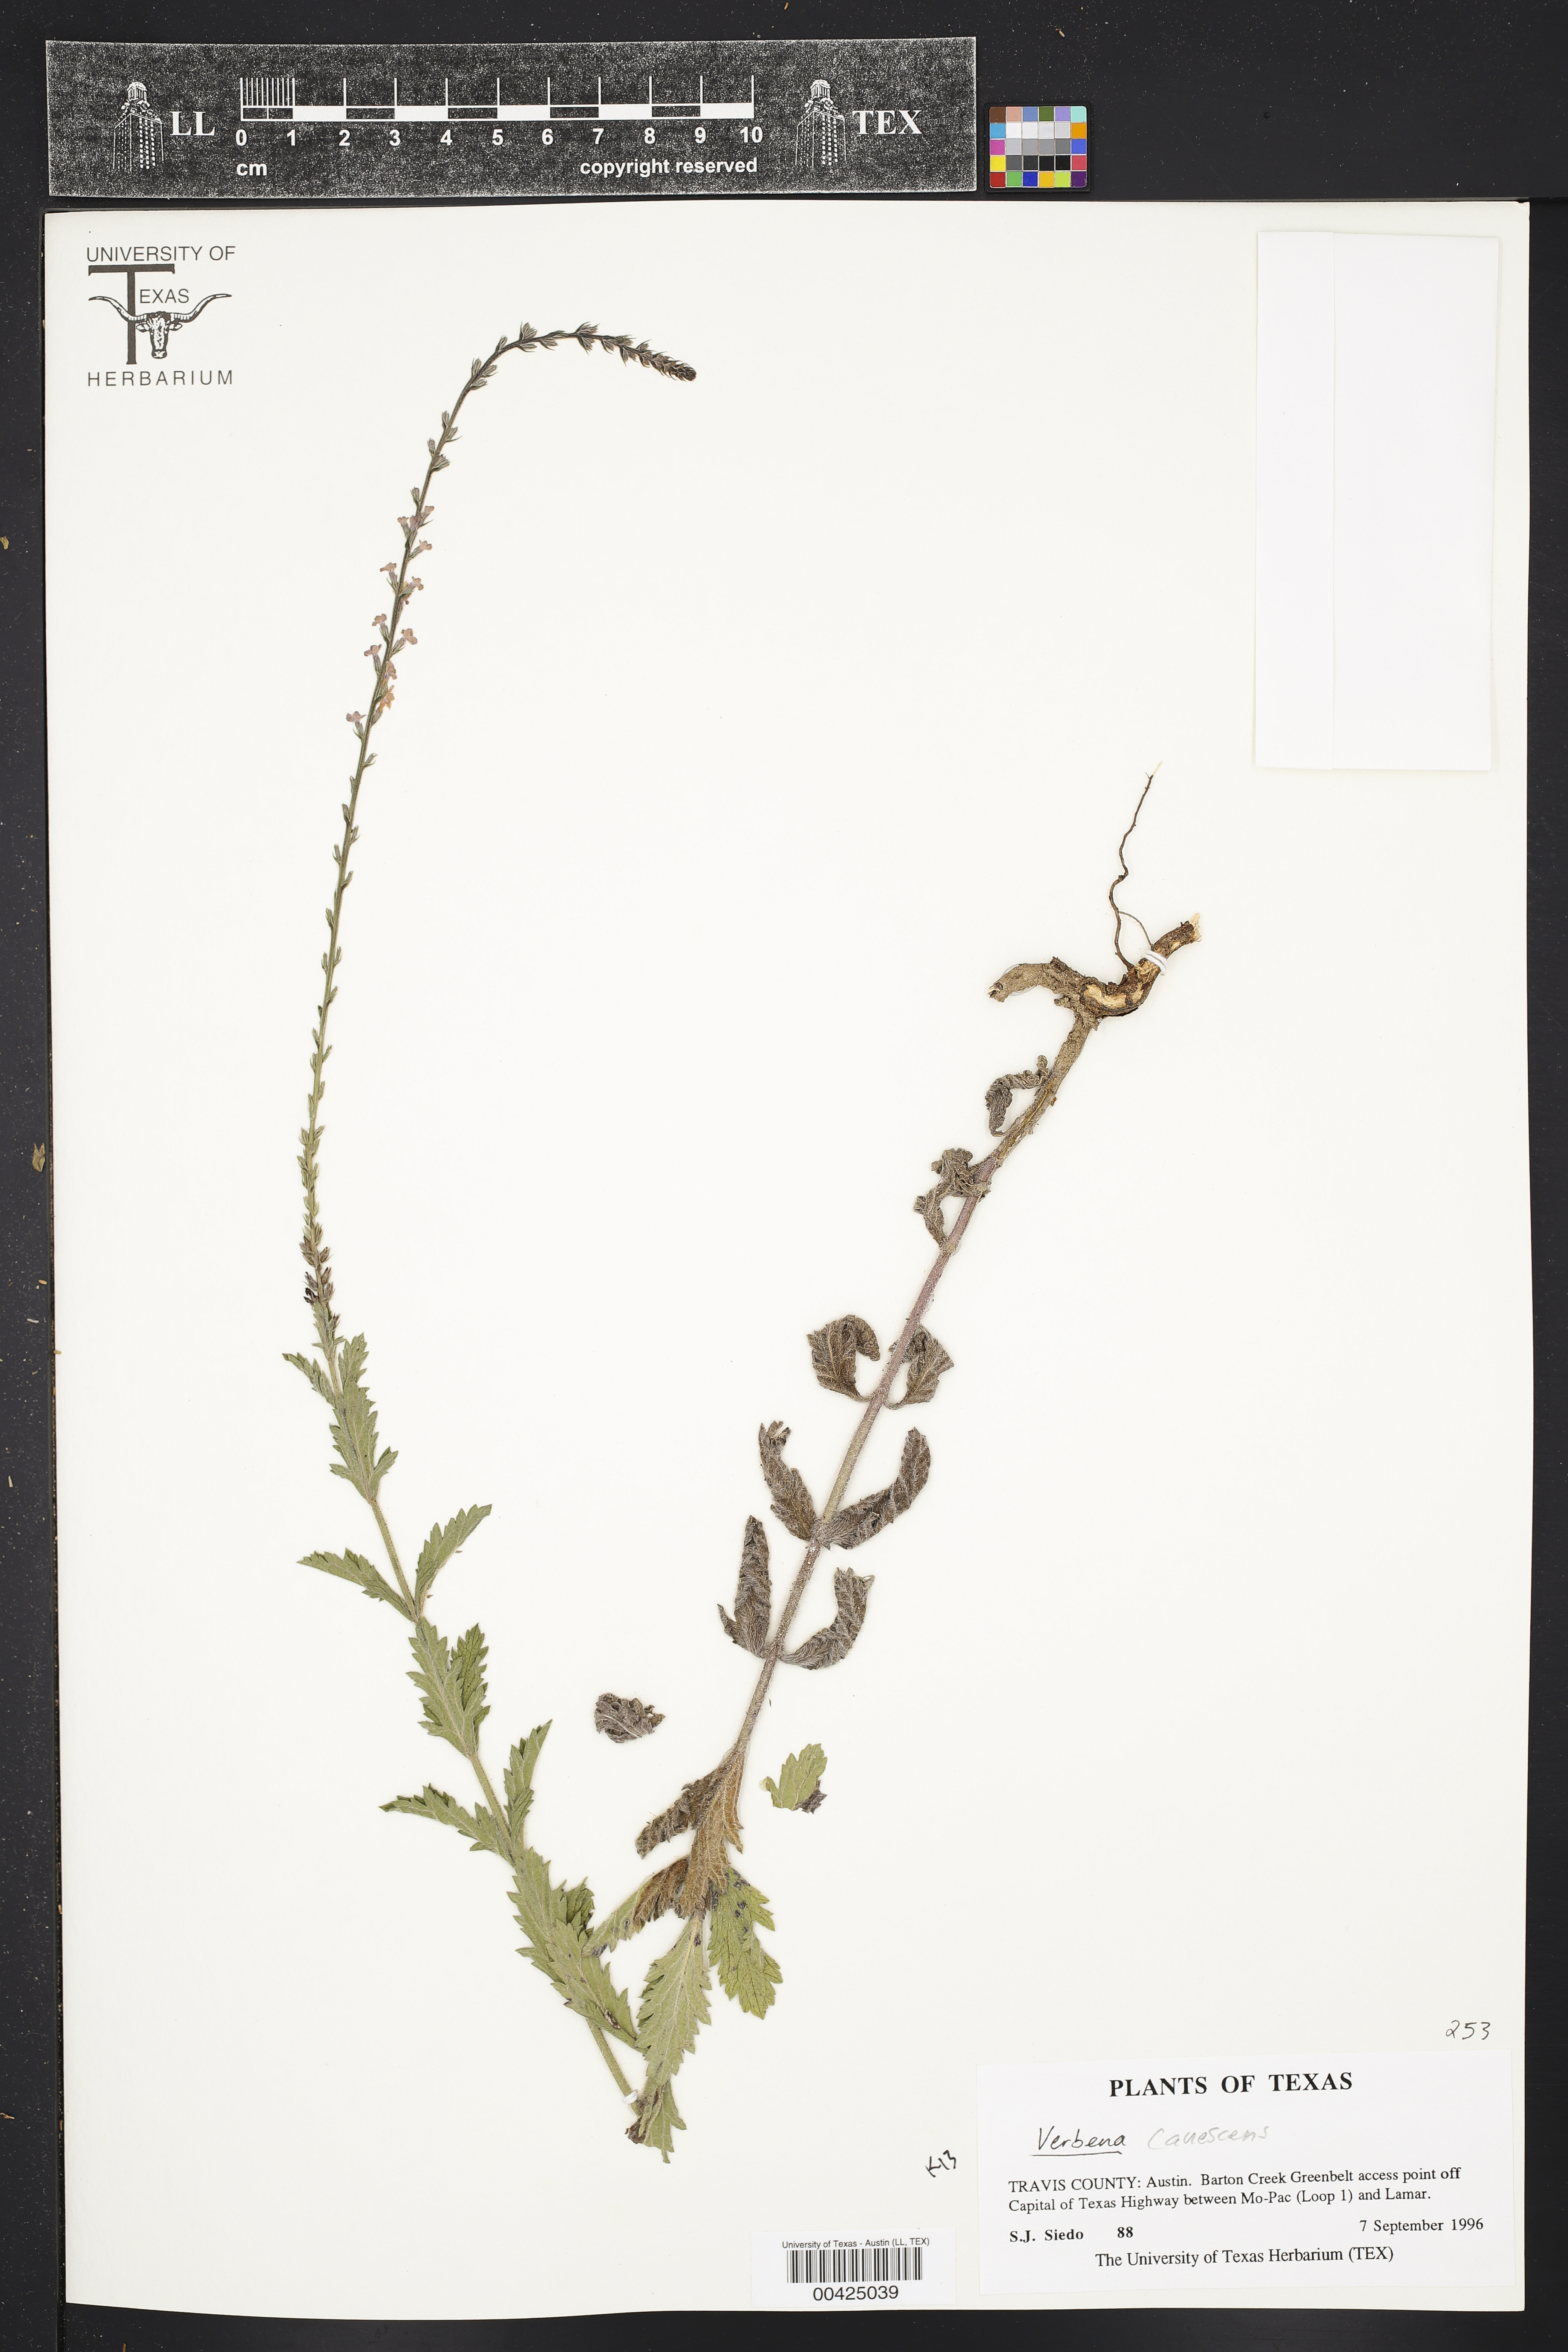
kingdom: Plantae
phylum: Tracheophyta
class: Magnoliopsida
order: Lamiales
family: Verbenaceae
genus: Verbena
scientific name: Verbena canescens
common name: Gray vervain
